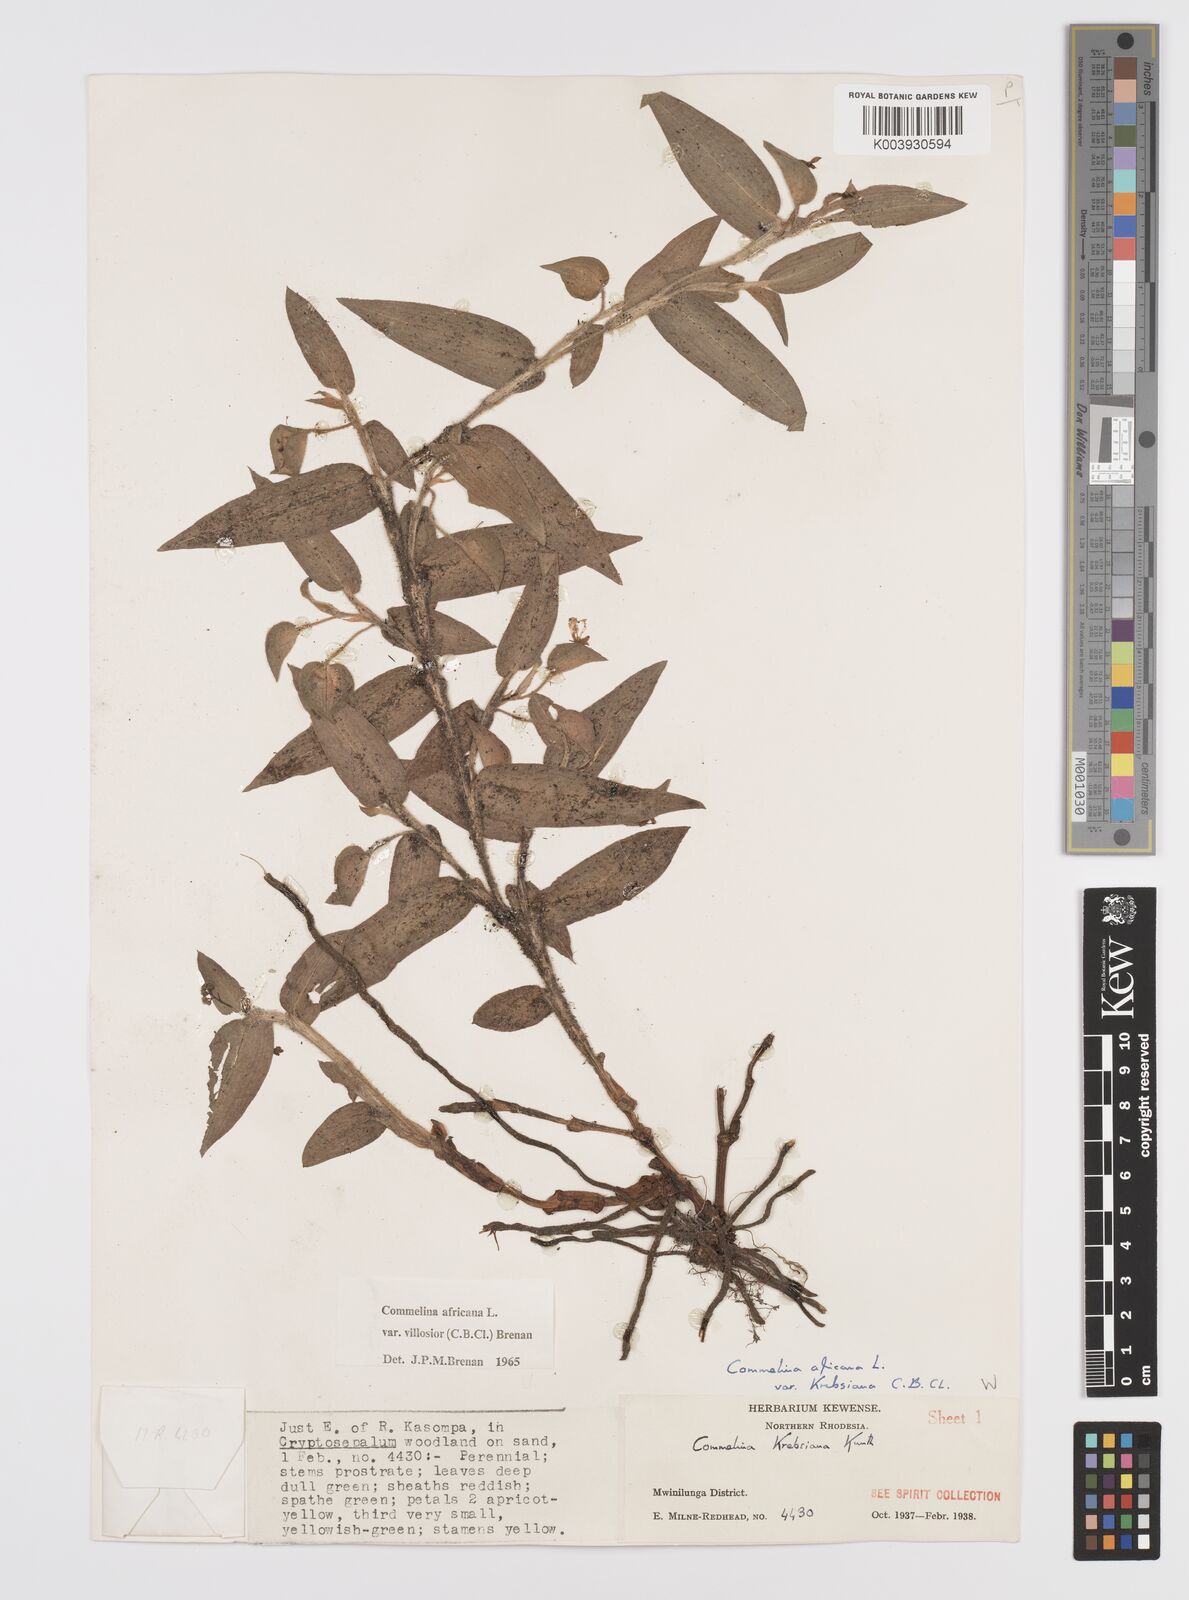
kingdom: Plantae
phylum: Tracheophyta
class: Liliopsida
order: Commelinales
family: Commelinaceae
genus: Commelina
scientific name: Commelina africana
